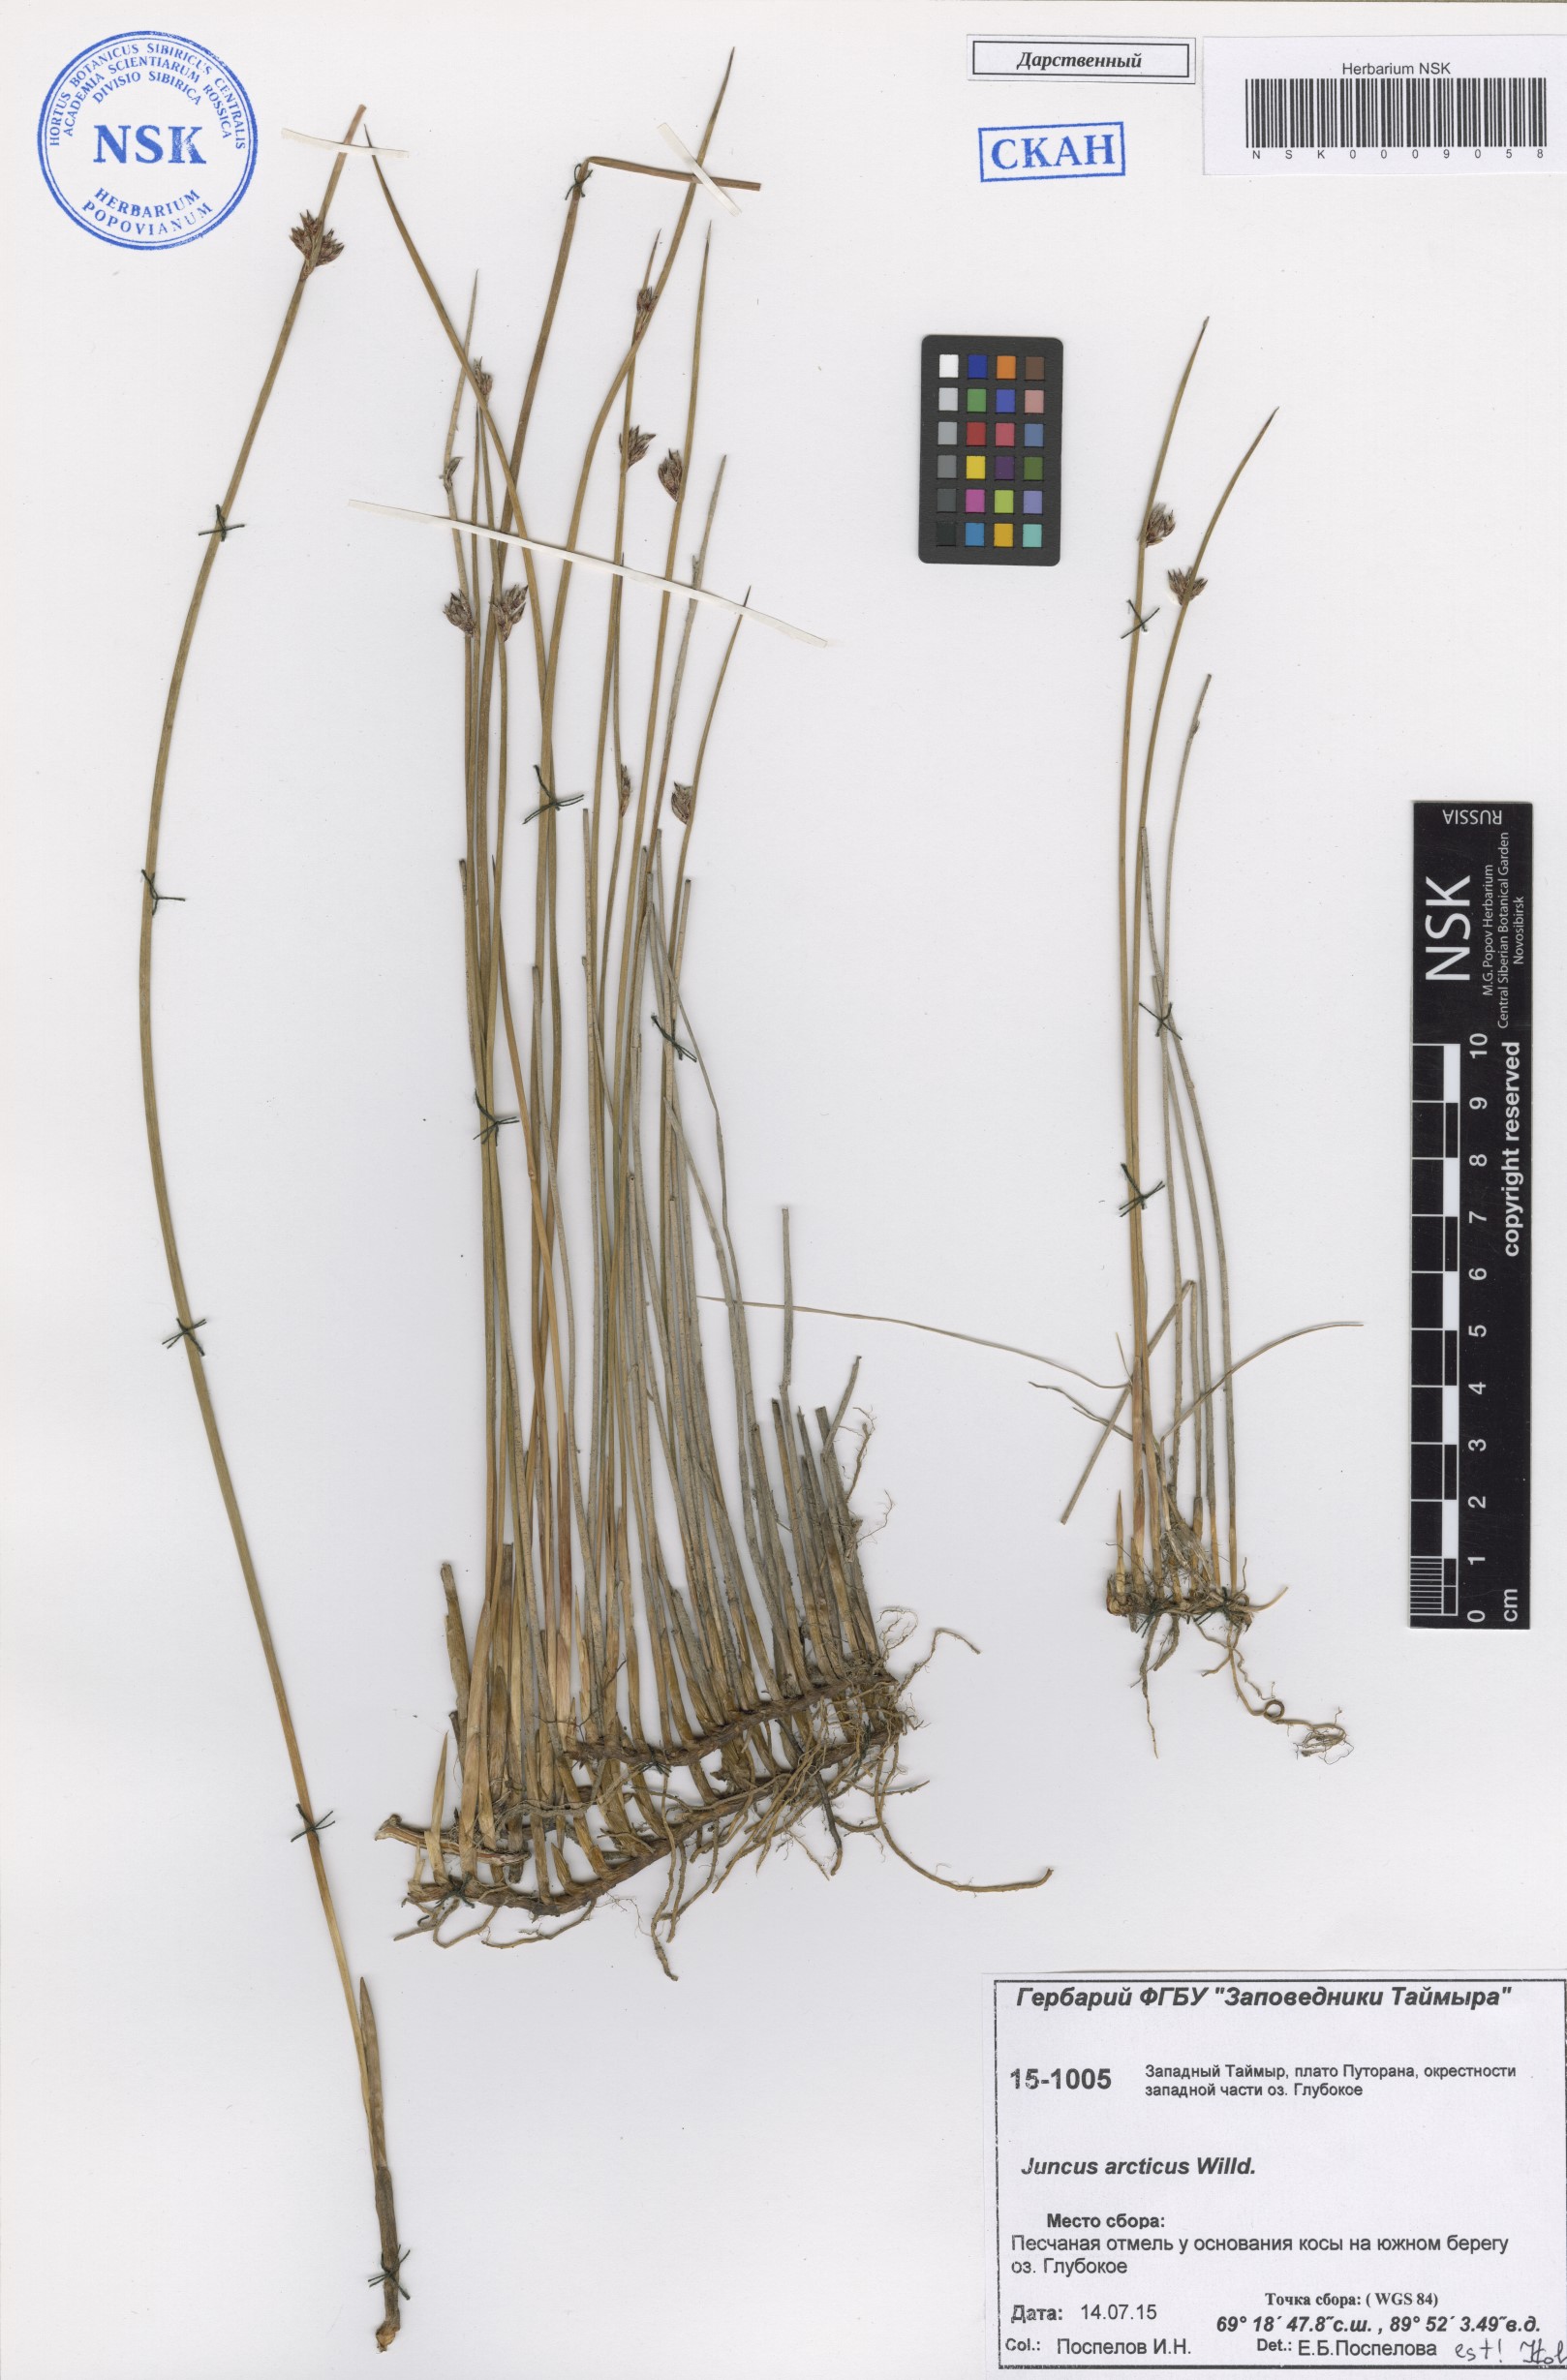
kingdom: Plantae
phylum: Tracheophyta
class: Liliopsida
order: Poales
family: Juncaceae
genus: Juncus
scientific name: Juncus arcticus
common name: Arctic rush
